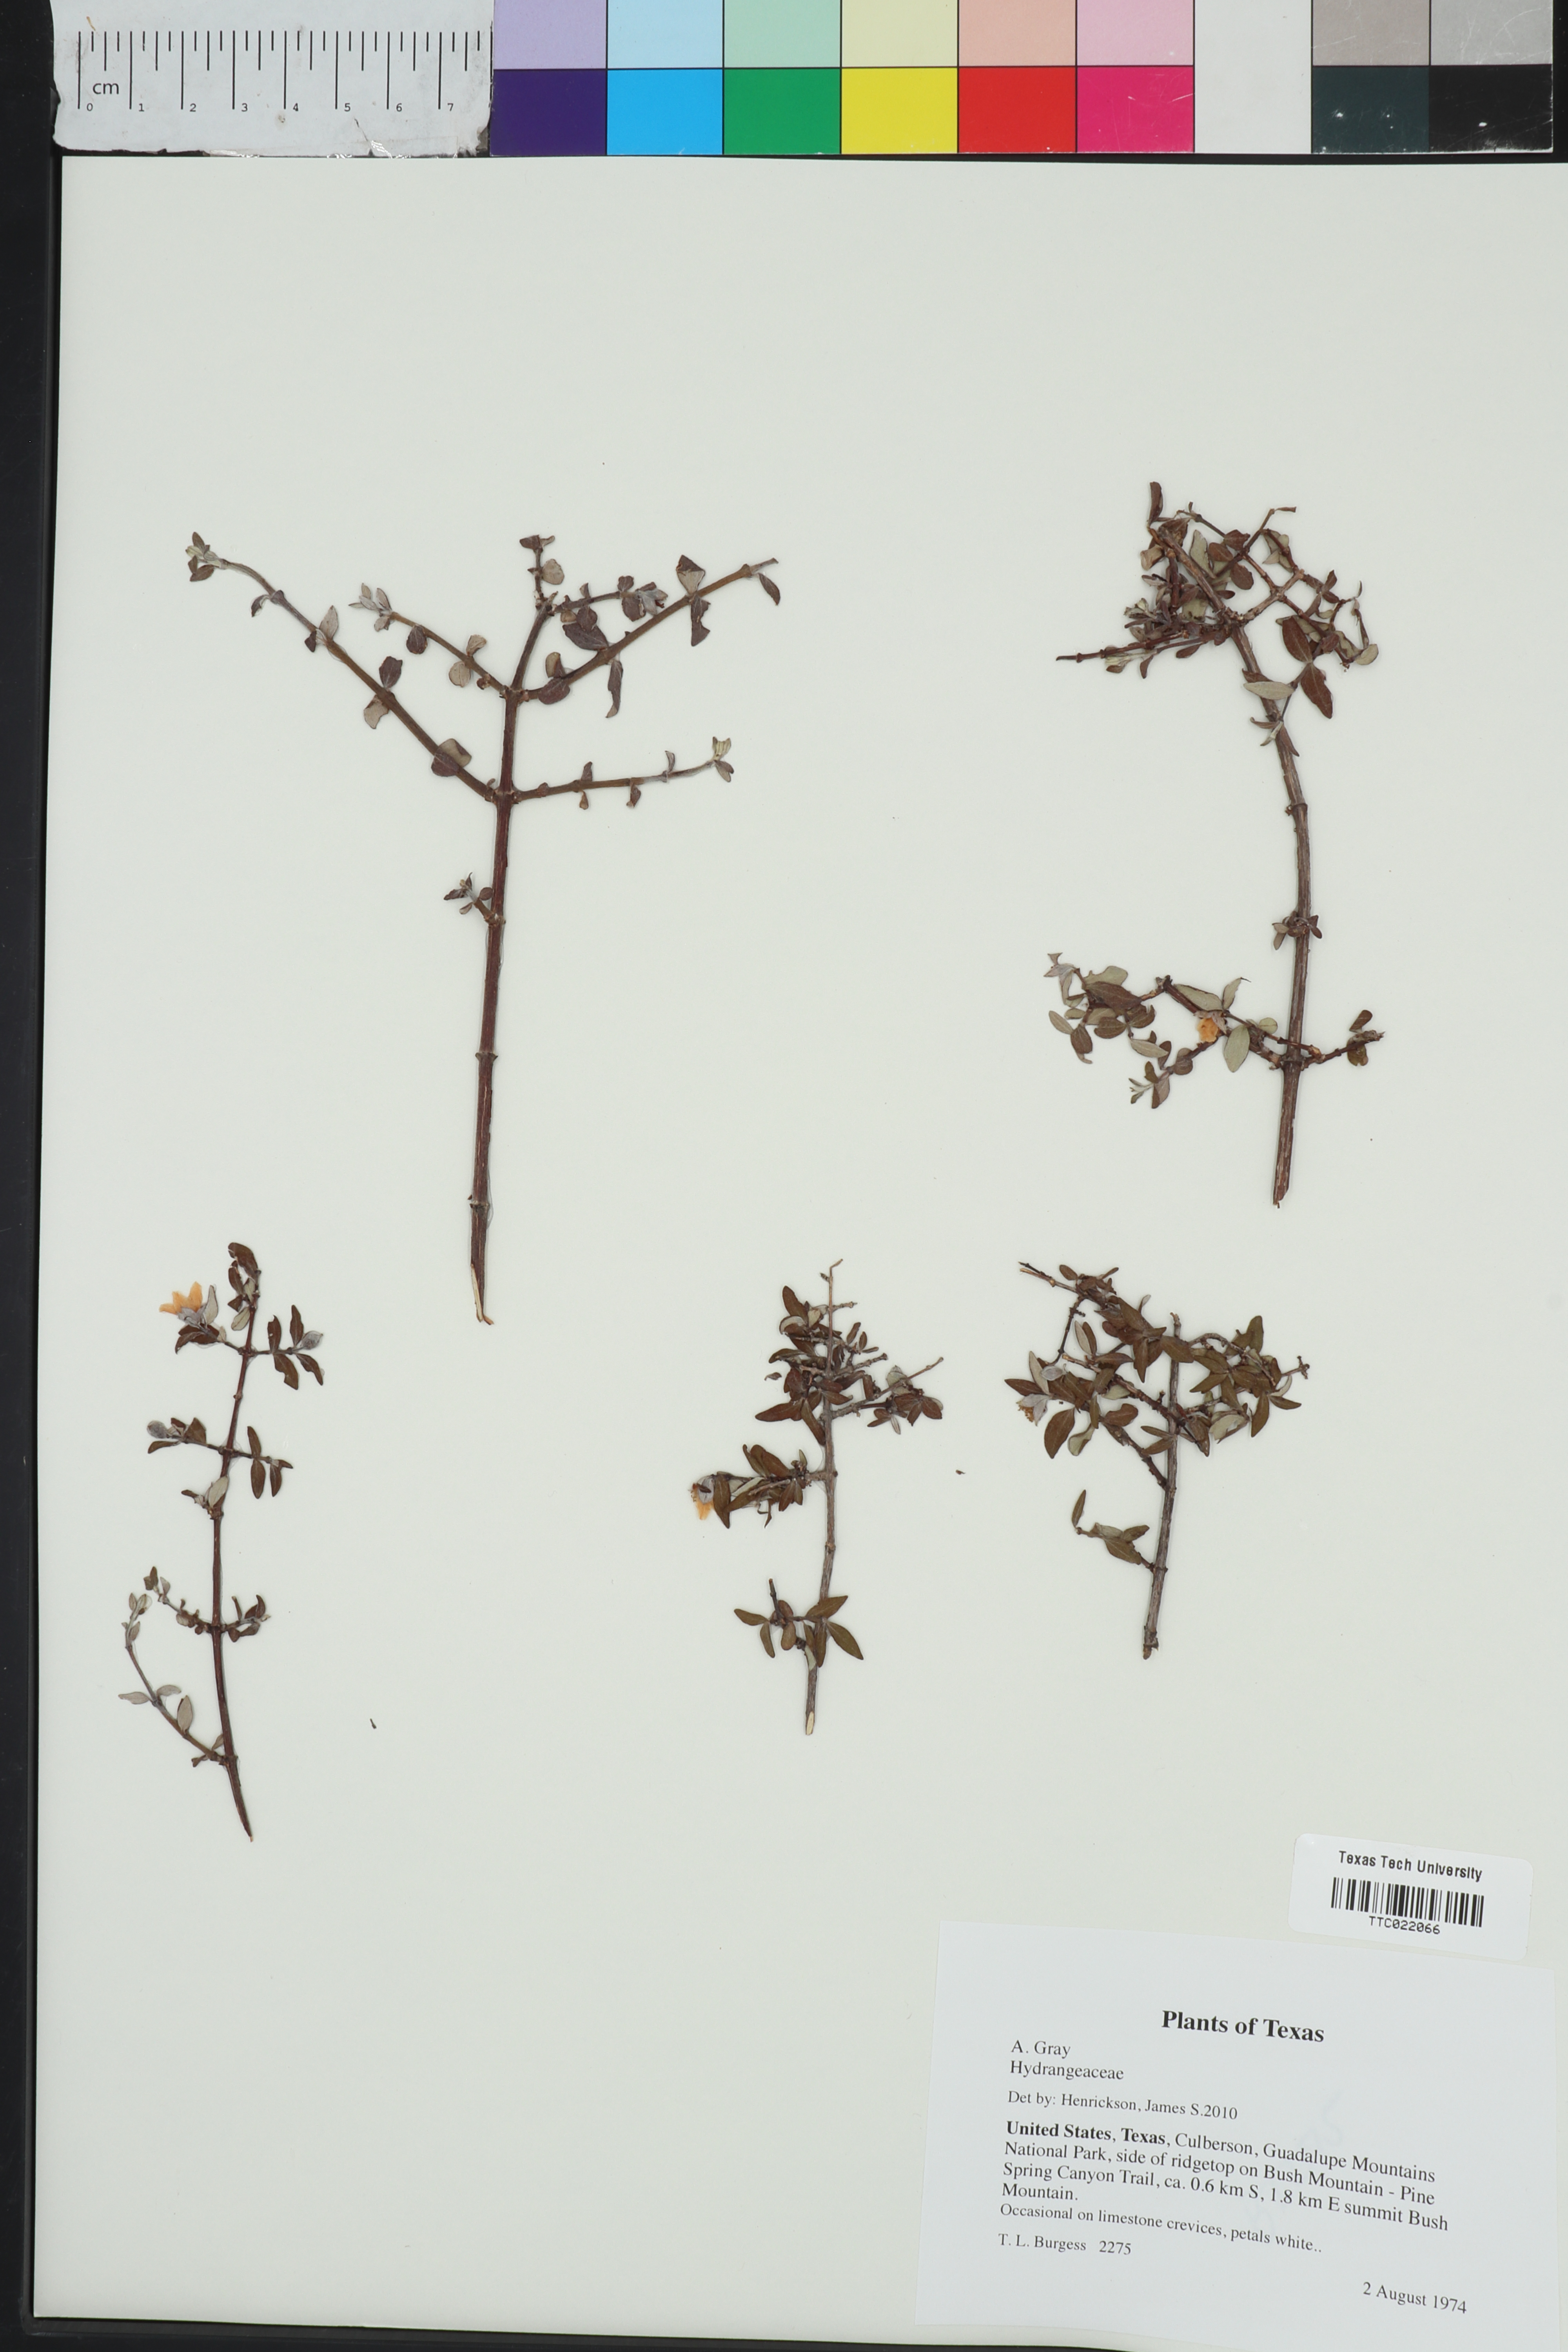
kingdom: Plantae
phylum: Tracheophyta
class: Magnoliopsida
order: Cornales
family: Hydrangeaceae
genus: Philadelphus
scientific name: Philadelphus microphyllus
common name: Desert mock orange
